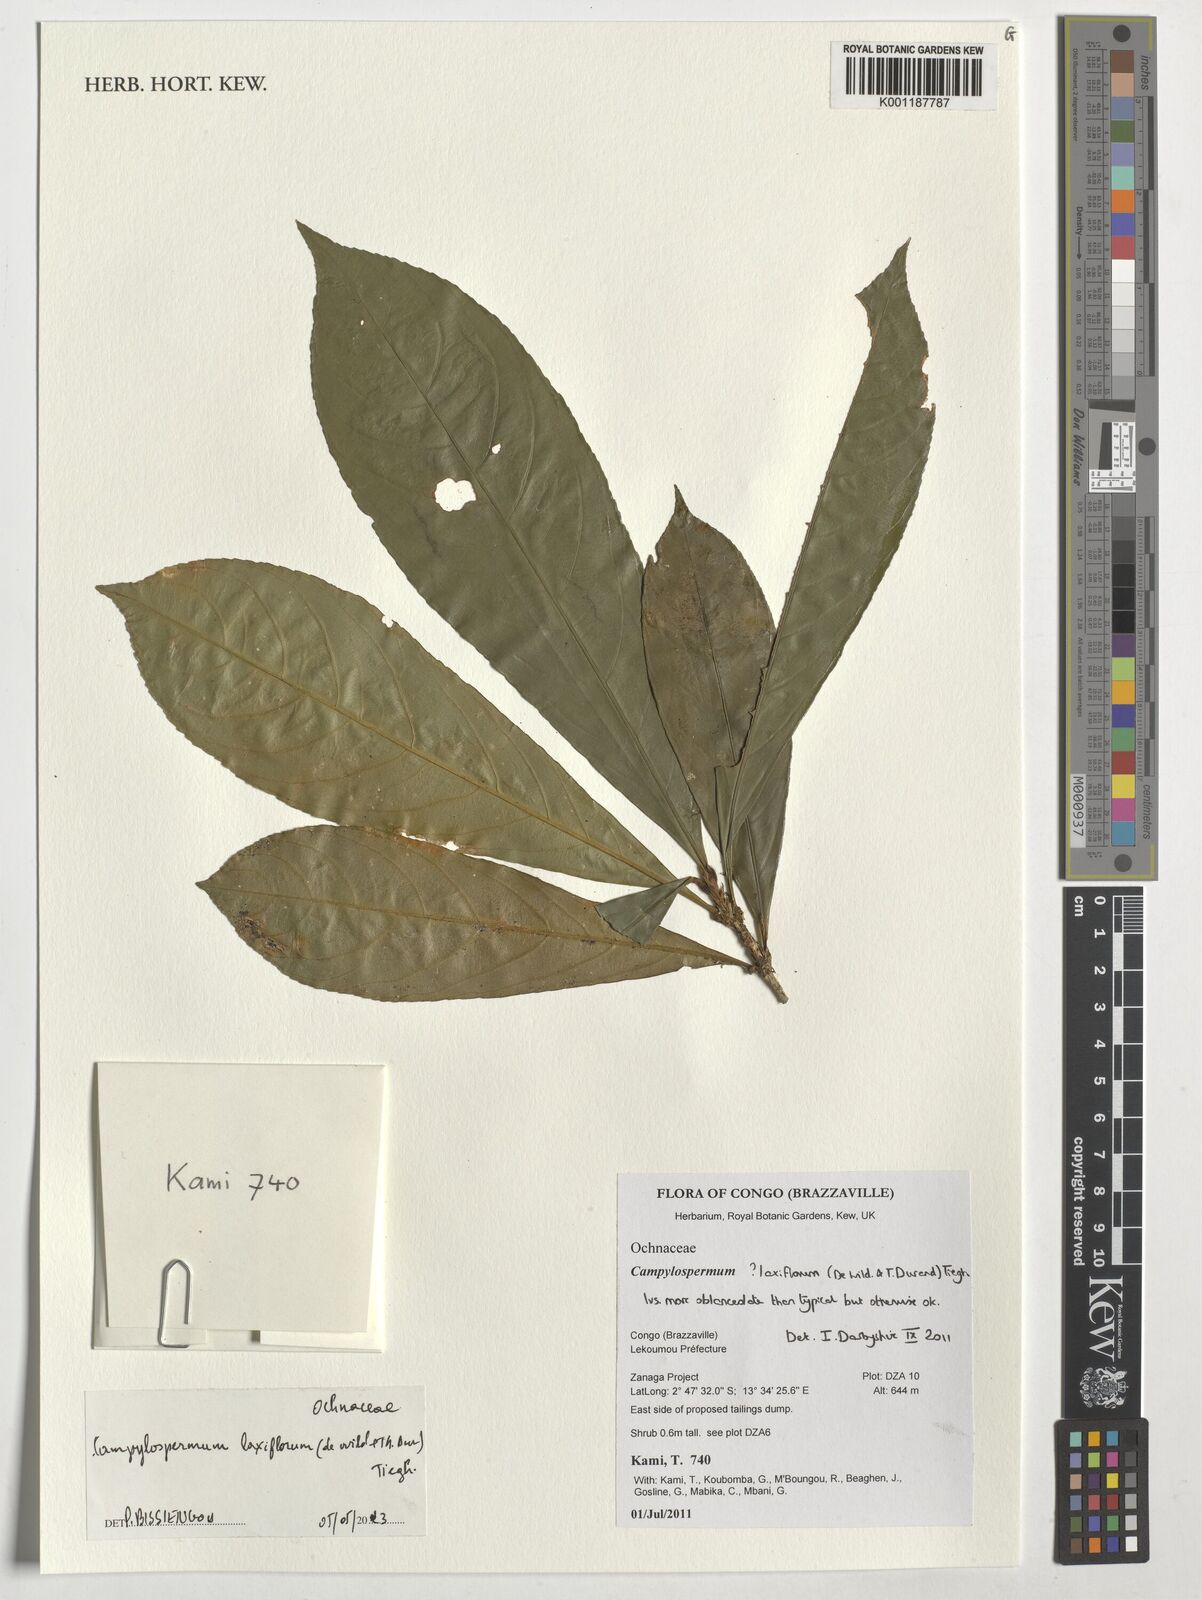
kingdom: Plantae
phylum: Tracheophyta
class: Magnoliopsida
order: Malpighiales
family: Ochnaceae
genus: Campylospermum
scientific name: Campylospermum laxiflorum
